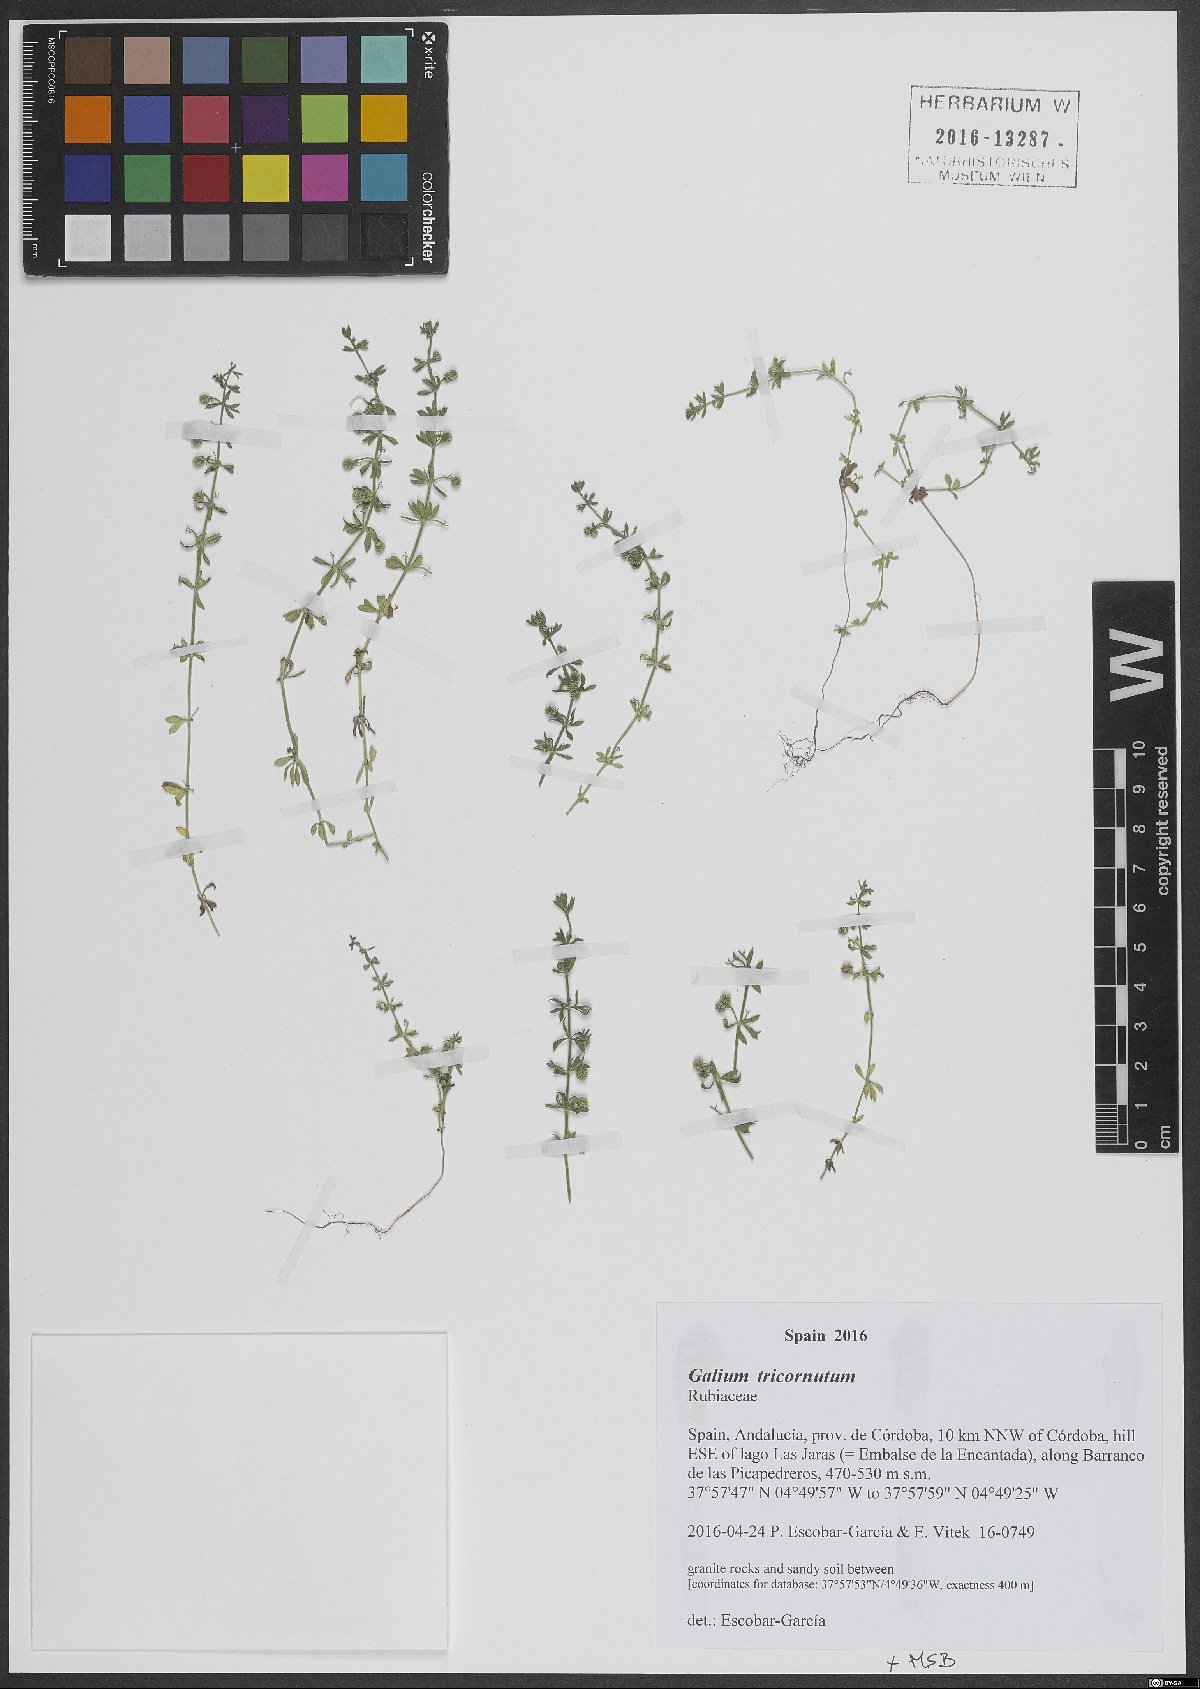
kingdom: Plantae
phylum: Tracheophyta
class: Magnoliopsida
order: Gentianales
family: Rubiaceae
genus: Galium
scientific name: Galium tricornutum
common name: Corn cleavers
